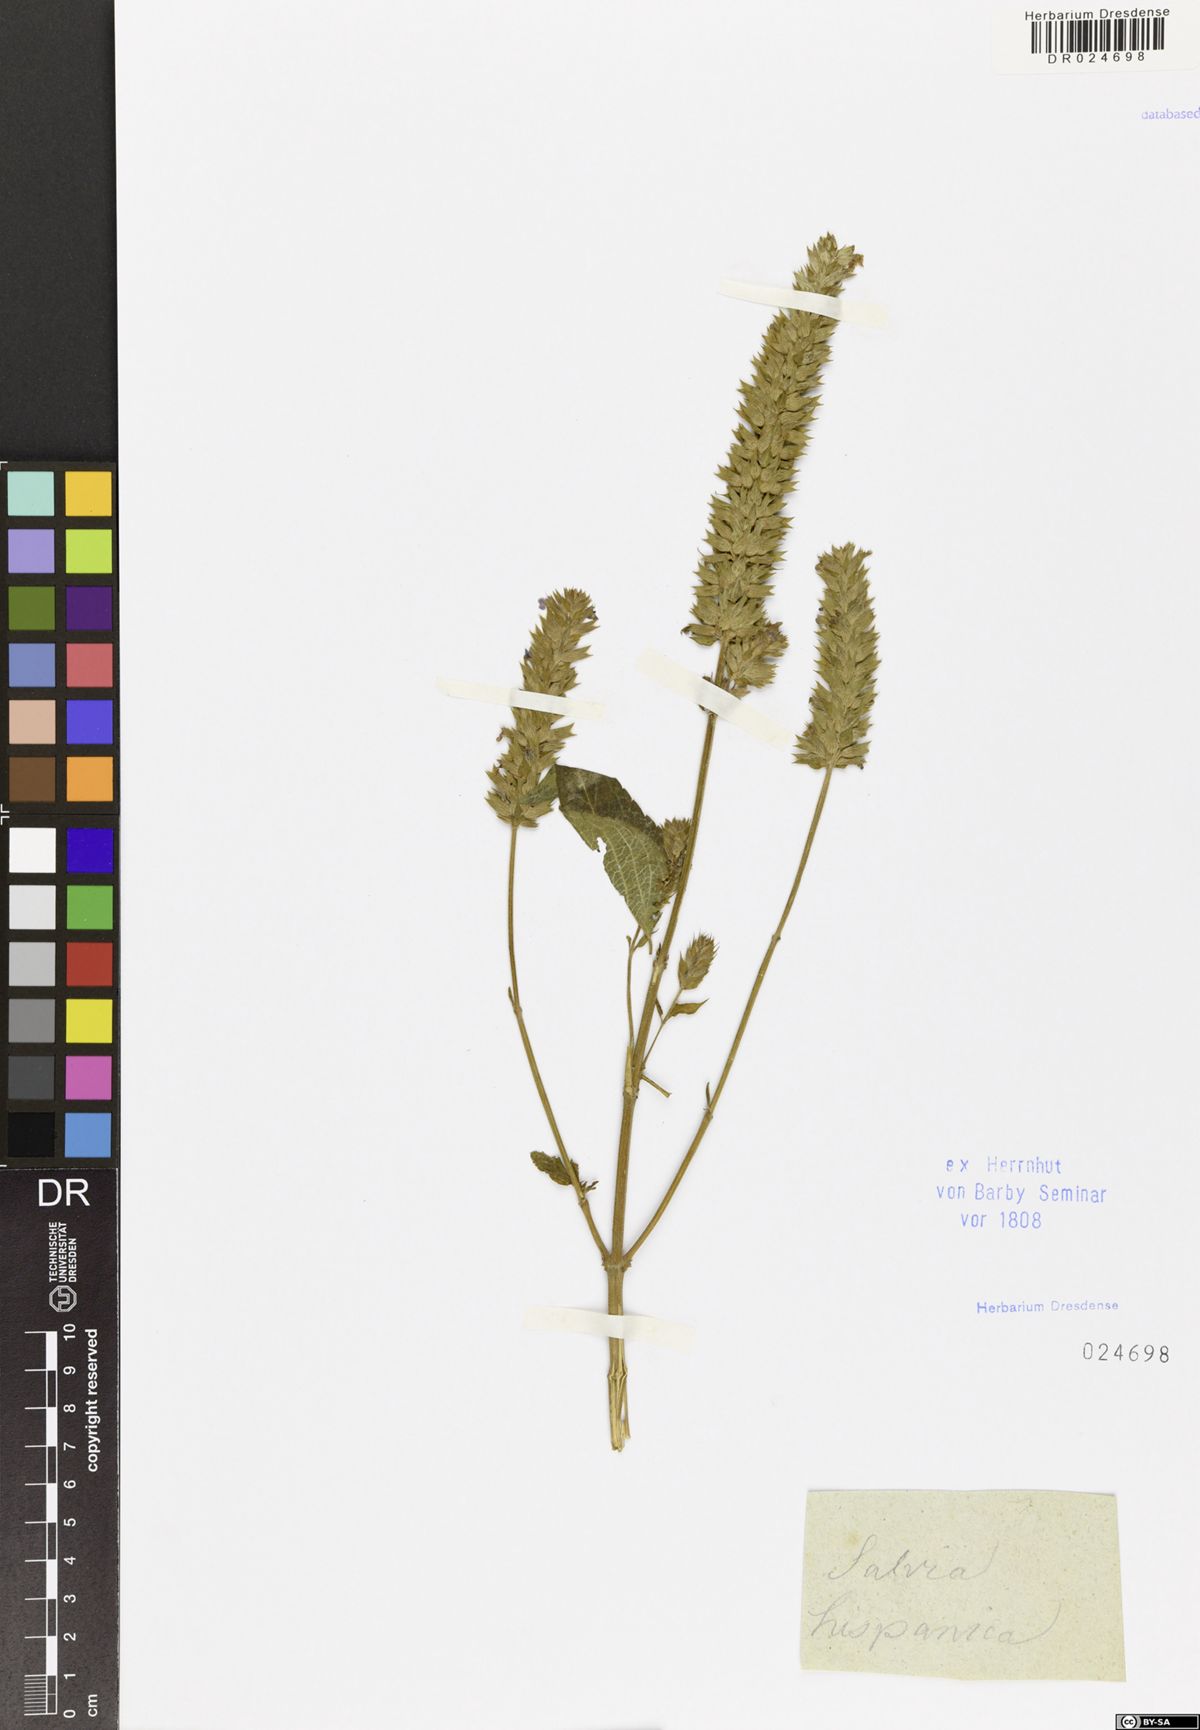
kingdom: Plantae
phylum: Tracheophyta
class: Magnoliopsida
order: Lamiales
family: Lamiaceae
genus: Salvia
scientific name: Salvia hispanica
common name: Chia
